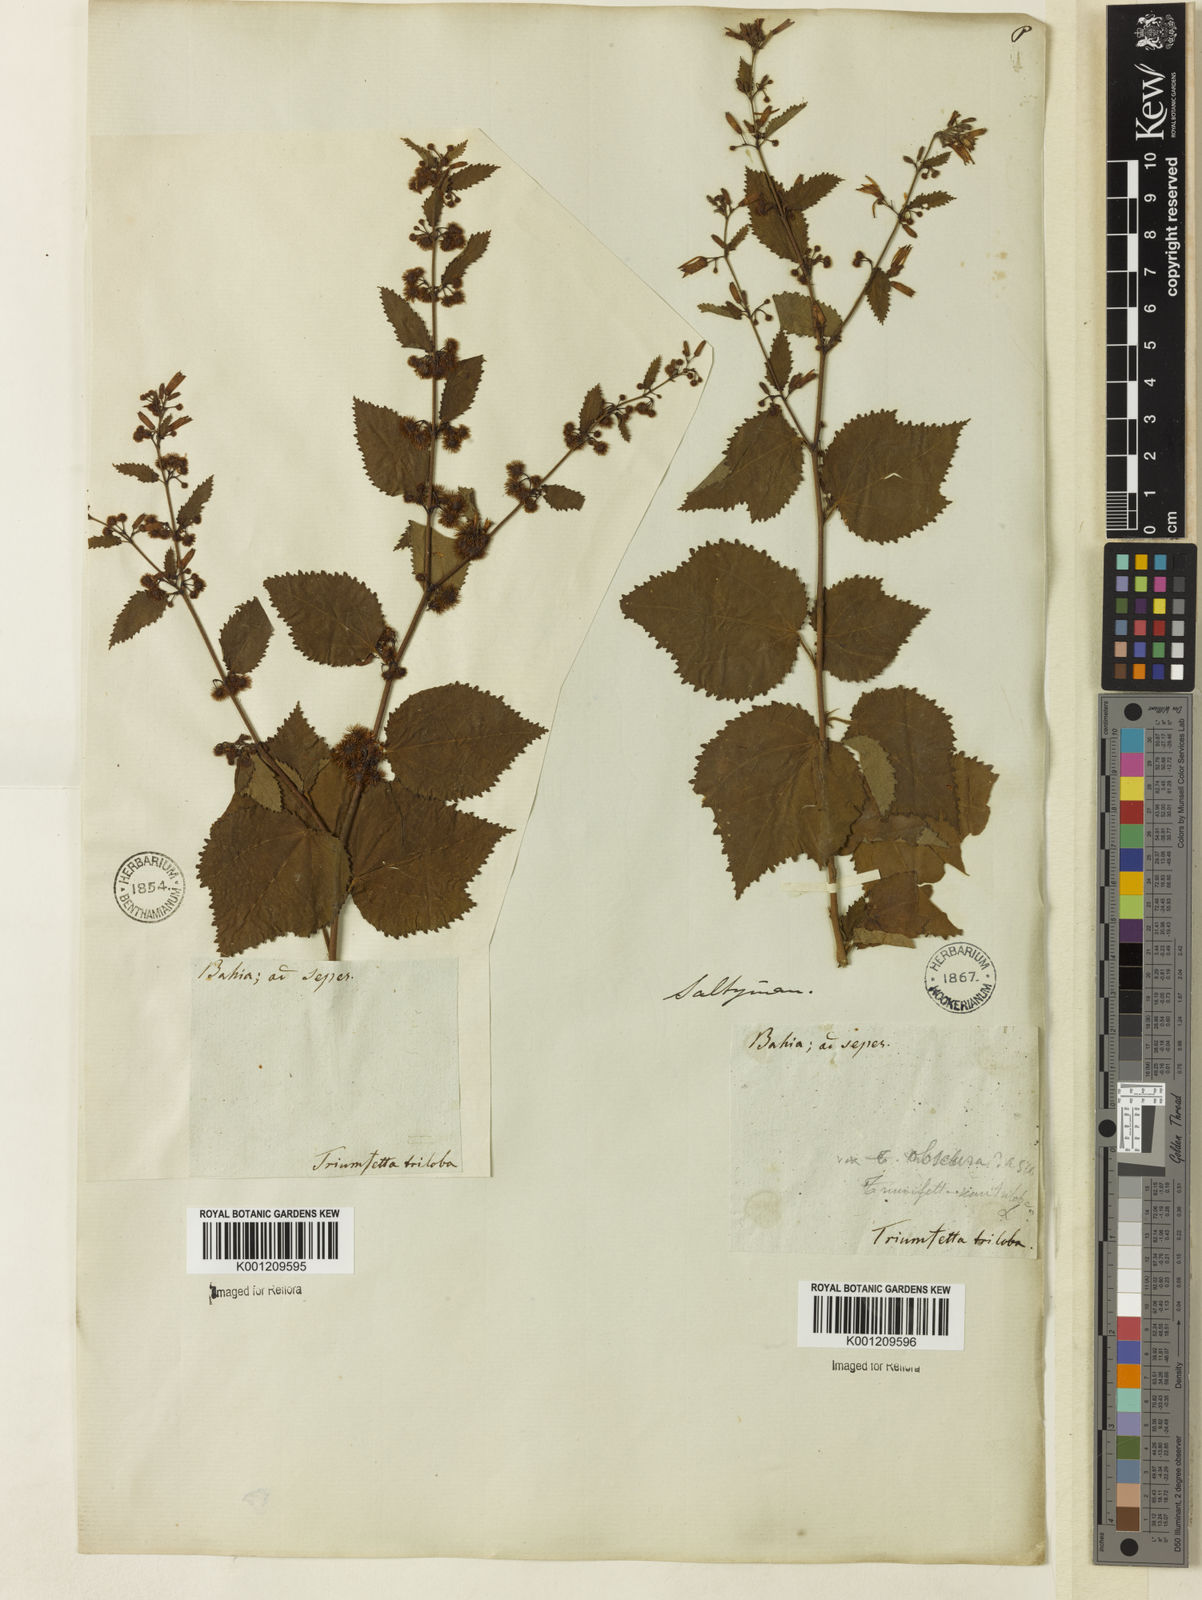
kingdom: Plantae
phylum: Tracheophyta
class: Magnoliopsida
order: Malvales
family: Malvaceae
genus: Triumfetta
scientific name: Triumfetta
